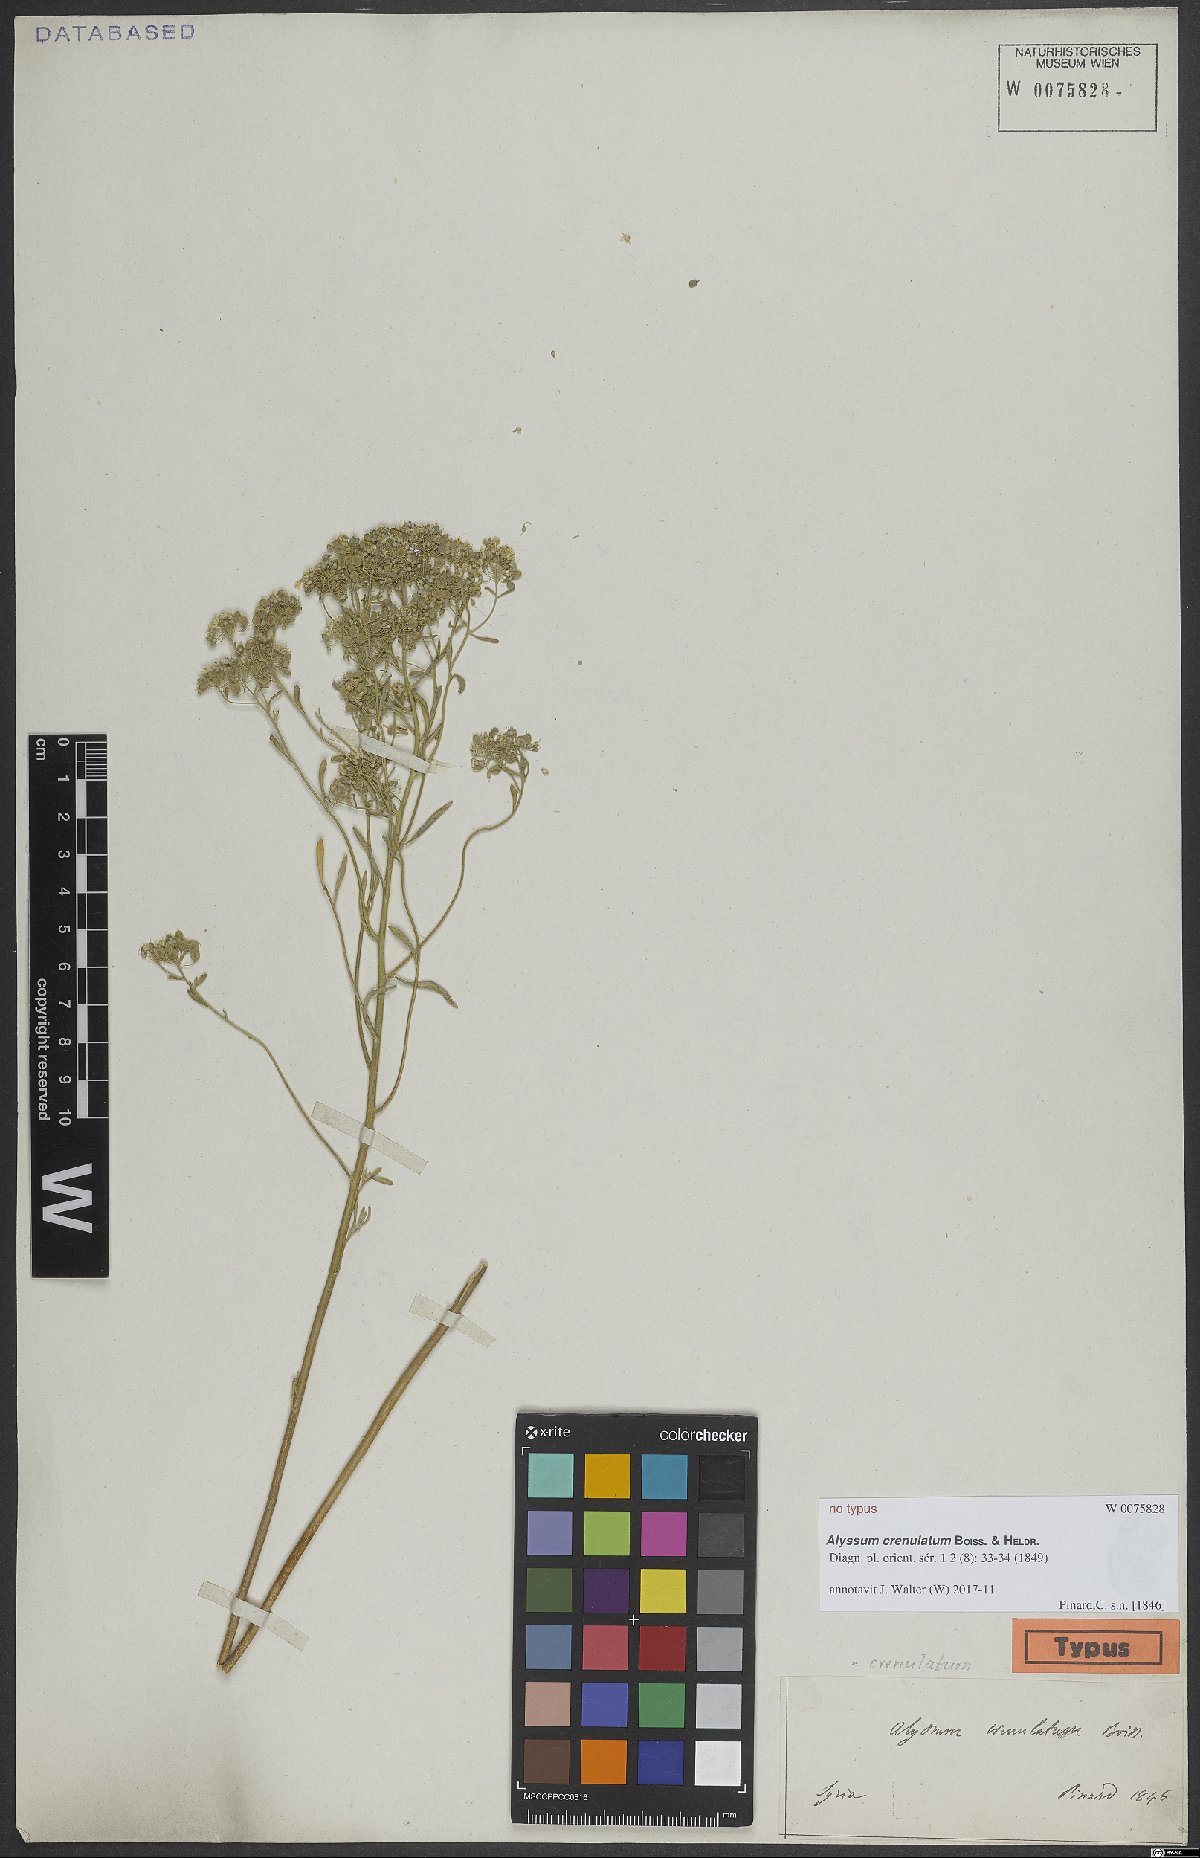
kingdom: Plantae
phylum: Tracheophyta
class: Magnoliopsida
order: Brassicales
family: Brassicaceae
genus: Odontarrhena
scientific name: Odontarrhena crenulata
